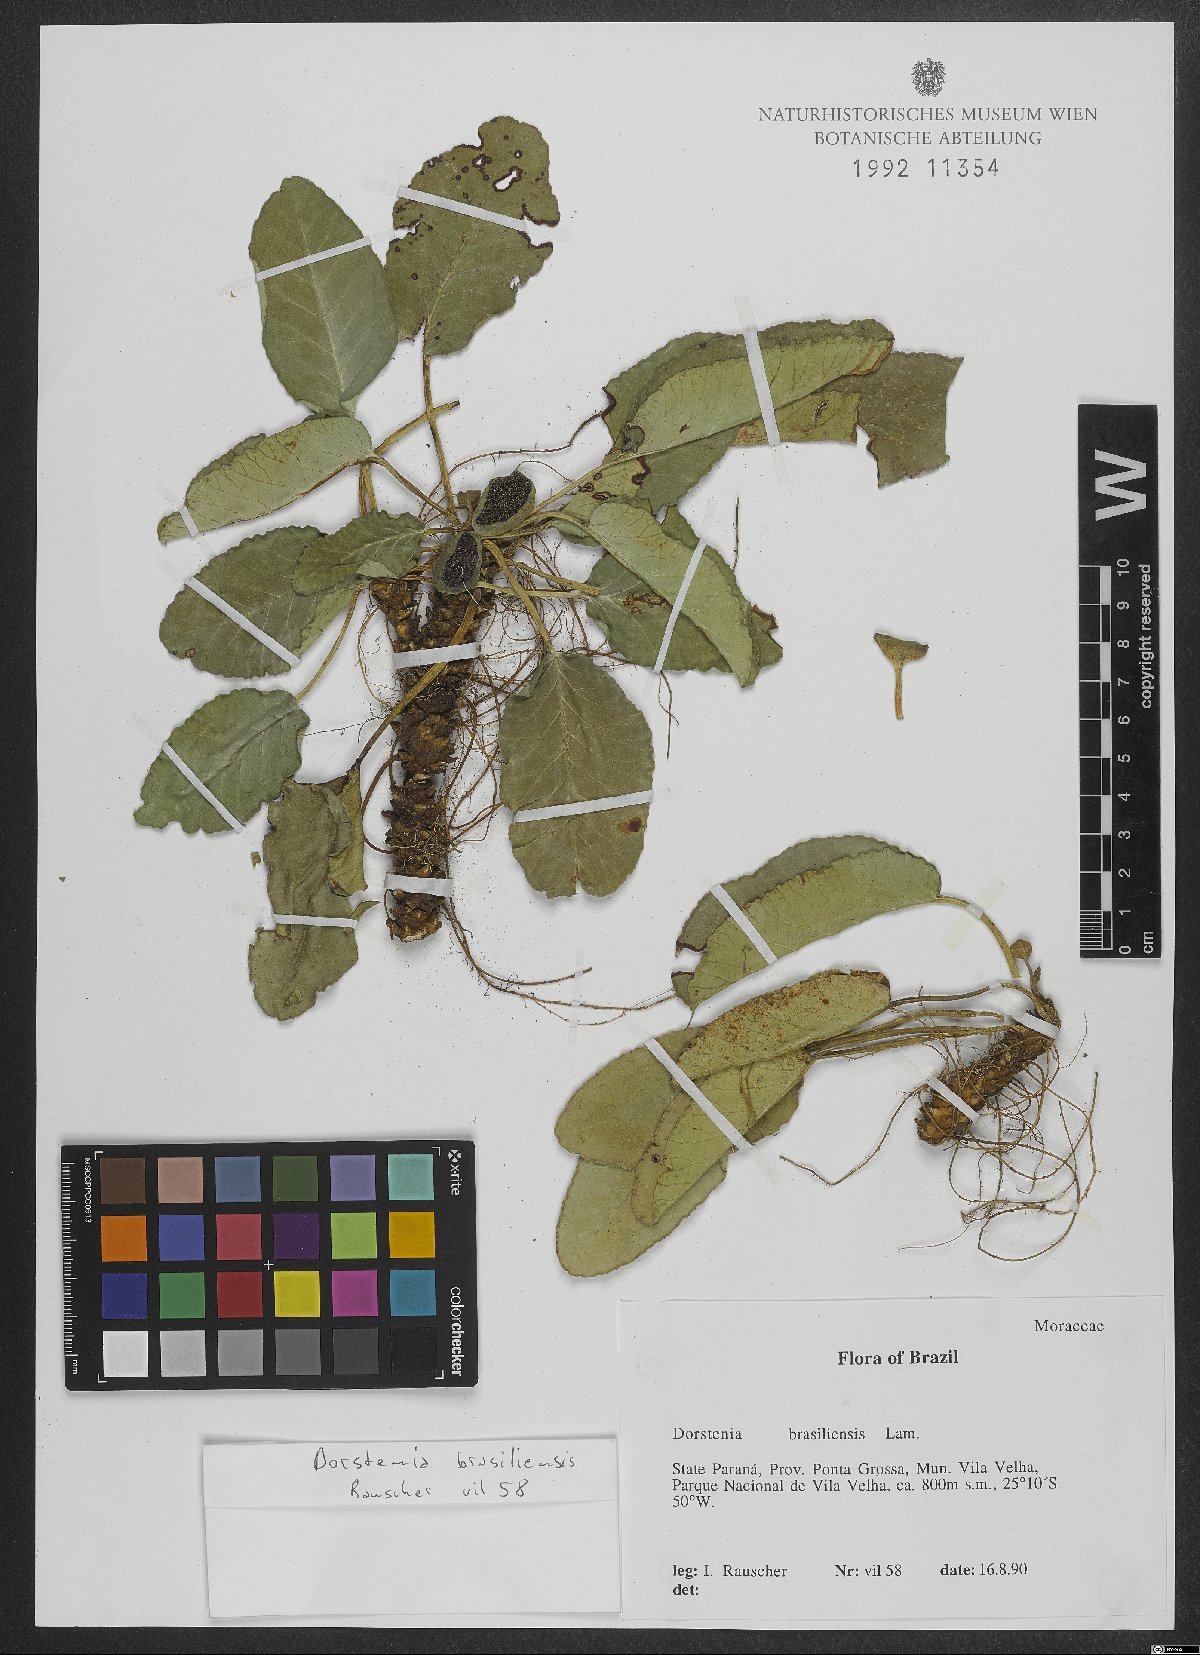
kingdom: Plantae
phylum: Tracheophyta
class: Magnoliopsida
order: Rosales
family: Moraceae
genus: Dorstenia
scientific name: Dorstenia brasiliensis
